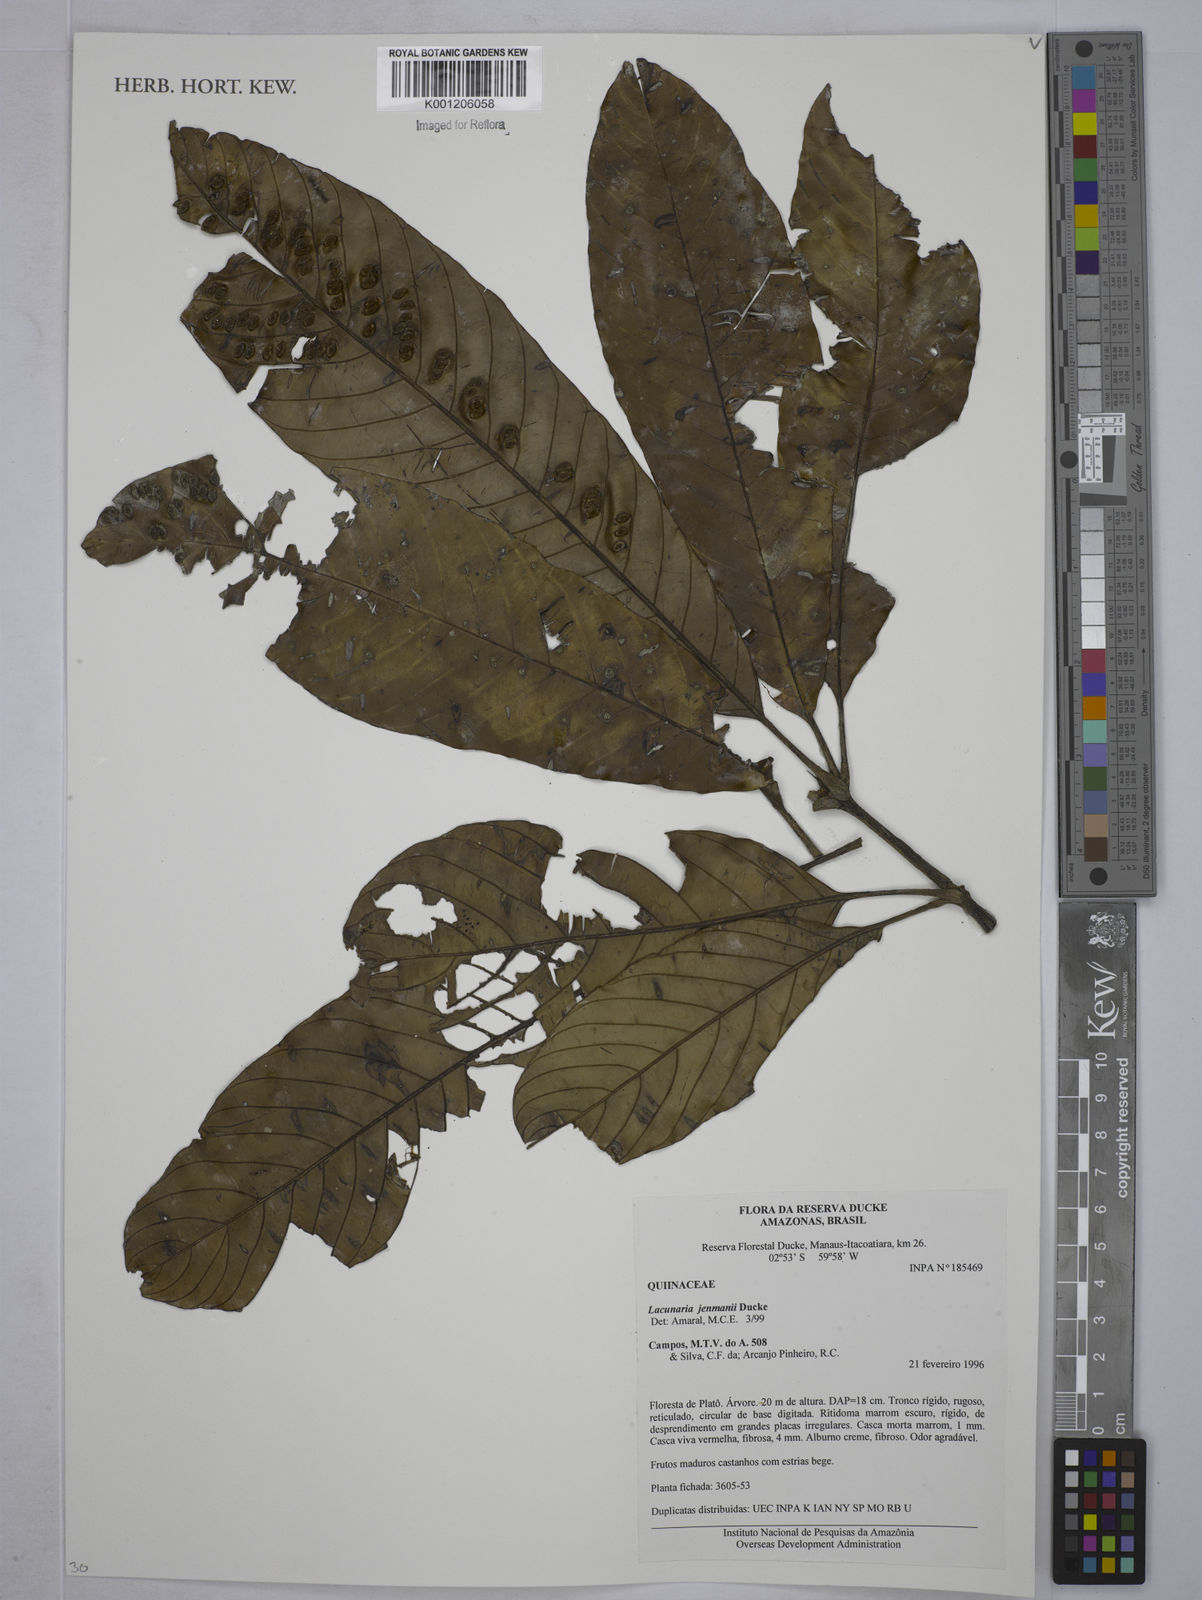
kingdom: Plantae
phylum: Tracheophyta
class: Magnoliopsida
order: Malpighiales
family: Quiinaceae
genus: Lacunaria
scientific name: Lacunaria jenmanii
